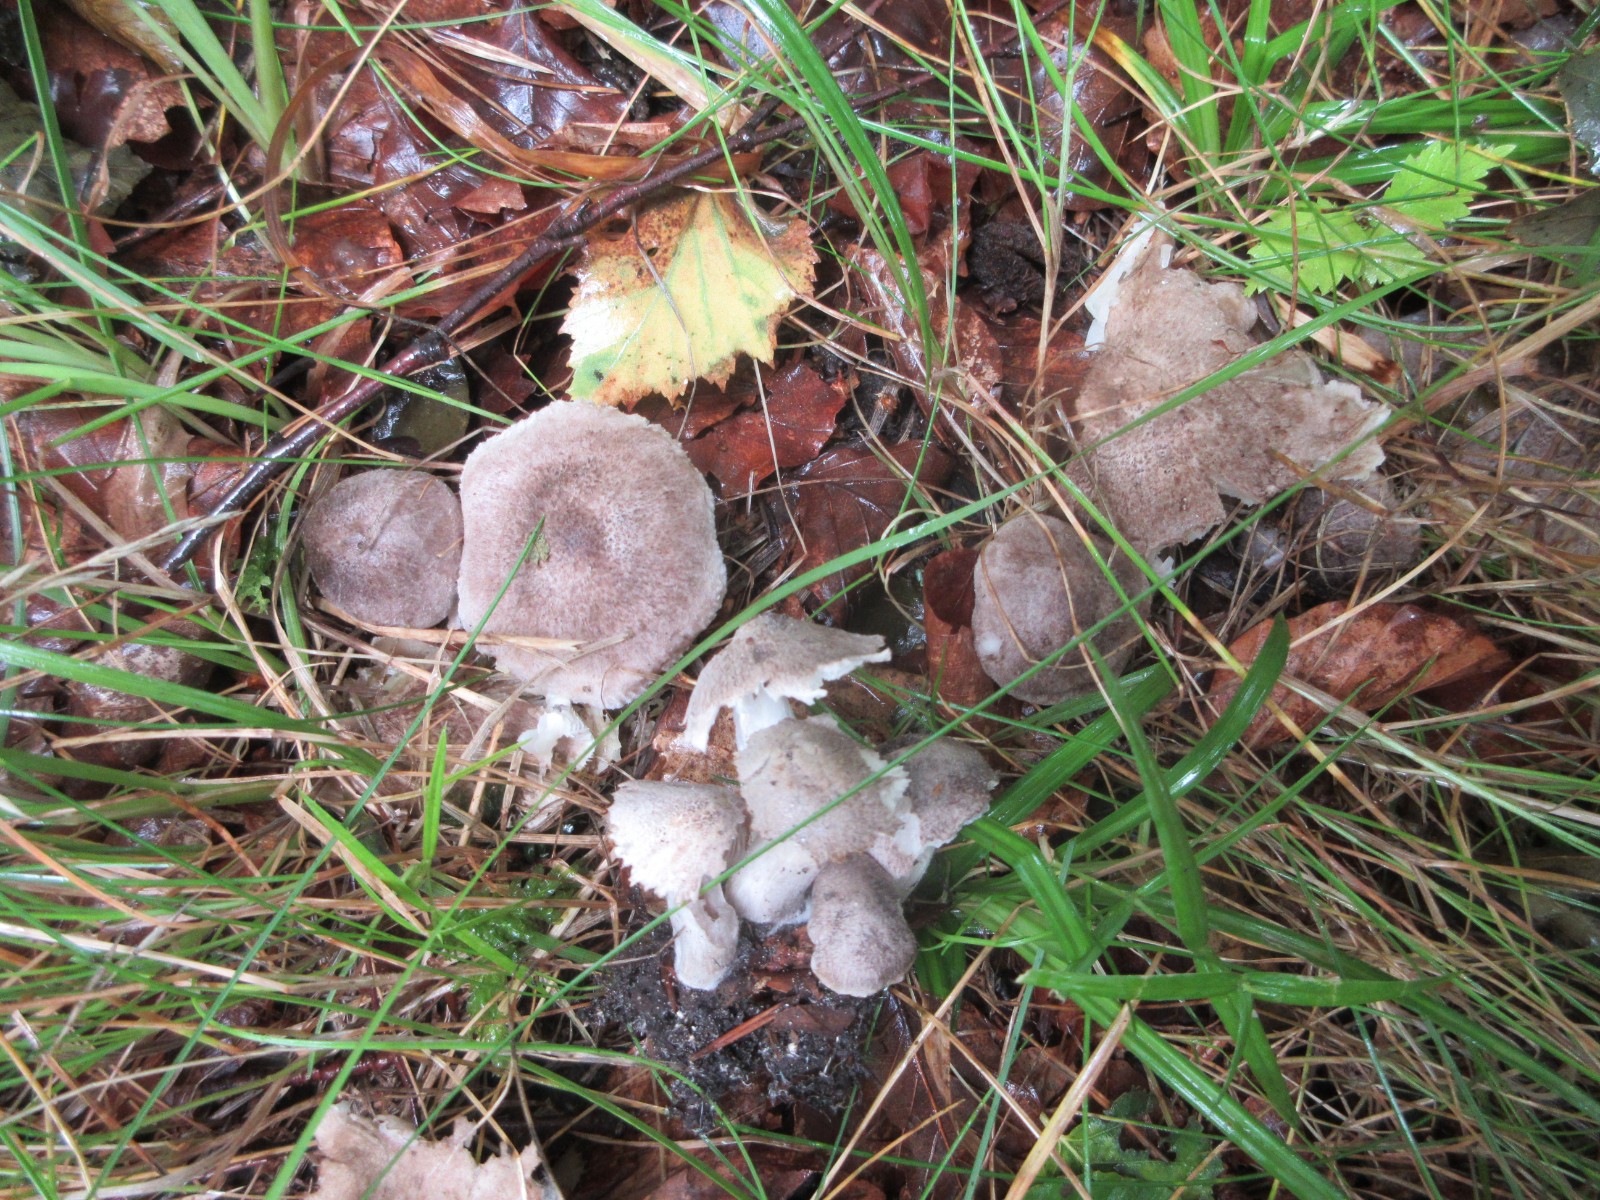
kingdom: Fungi
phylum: Basidiomycota
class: Agaricomycetes
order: Agaricales
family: Tricholomataceae
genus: Tricholoma
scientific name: Tricholoma scalpturatum
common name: gulplettet ridderhat
